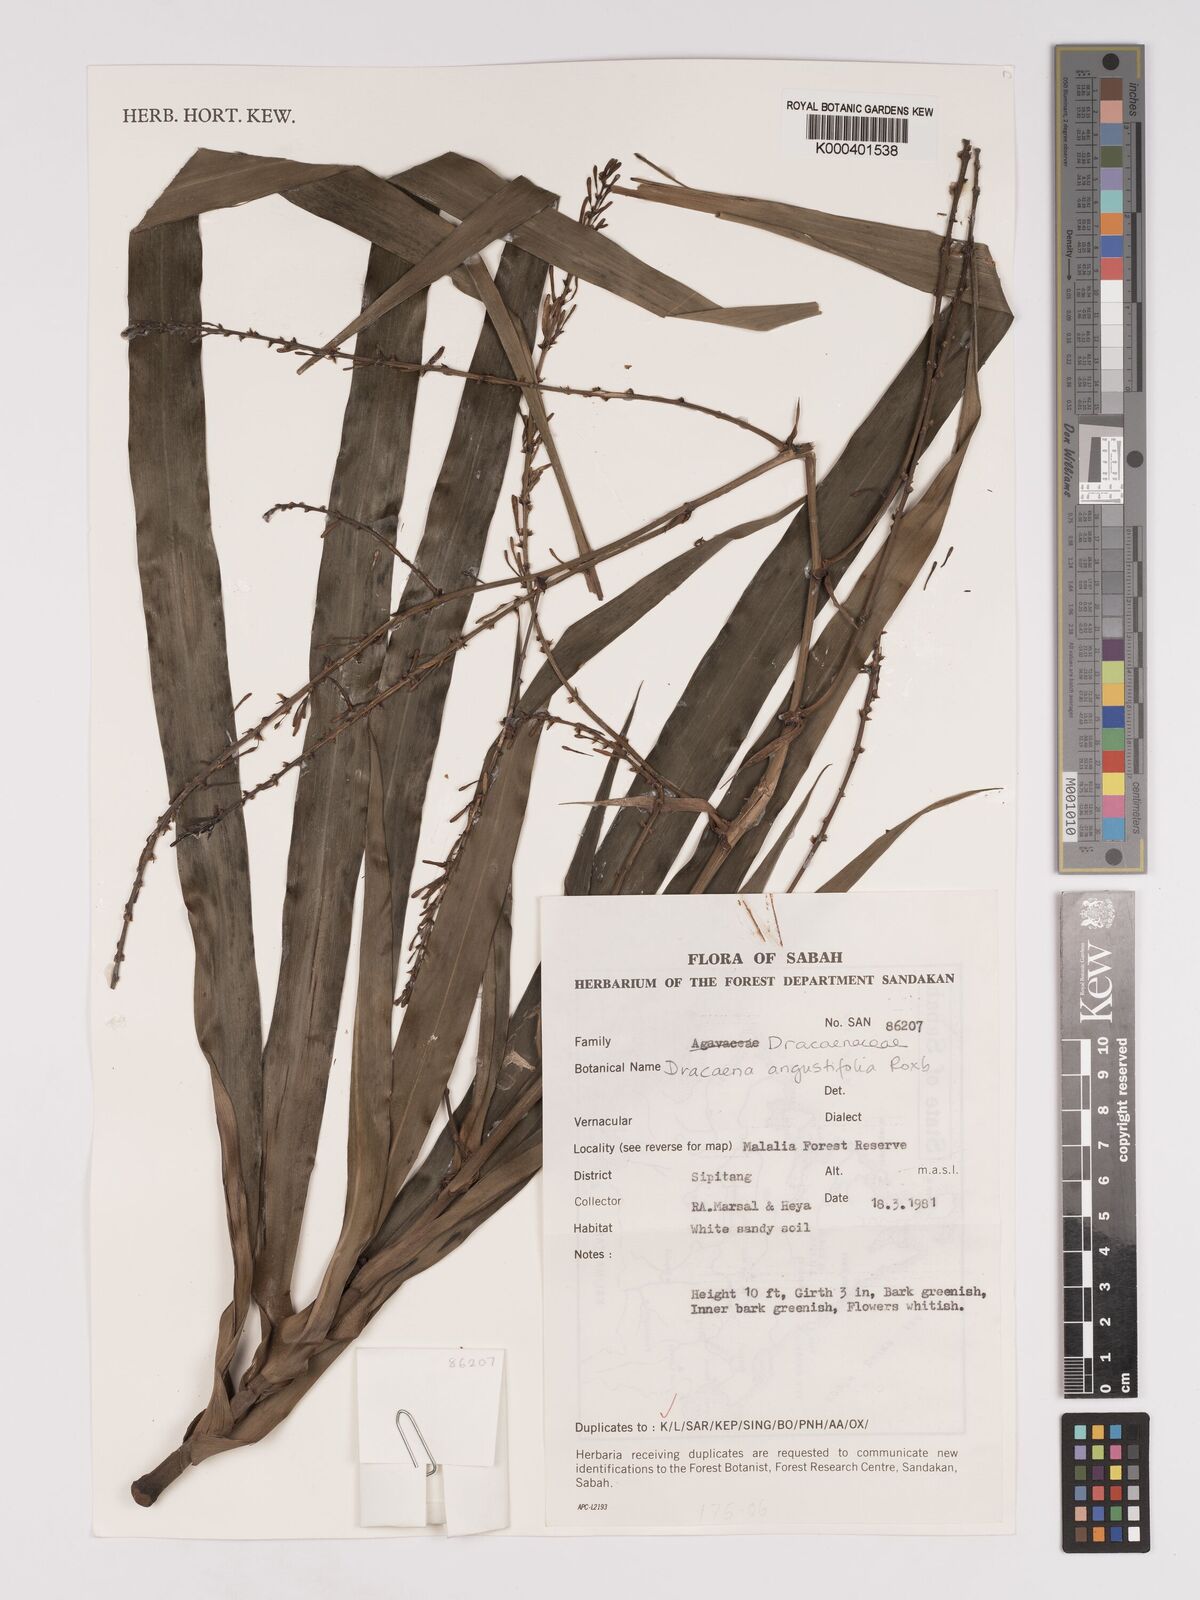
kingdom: Plantae
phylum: Tracheophyta
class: Liliopsida
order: Asparagales
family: Asparagaceae
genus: Dracaena
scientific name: Dracaena angustifolia
